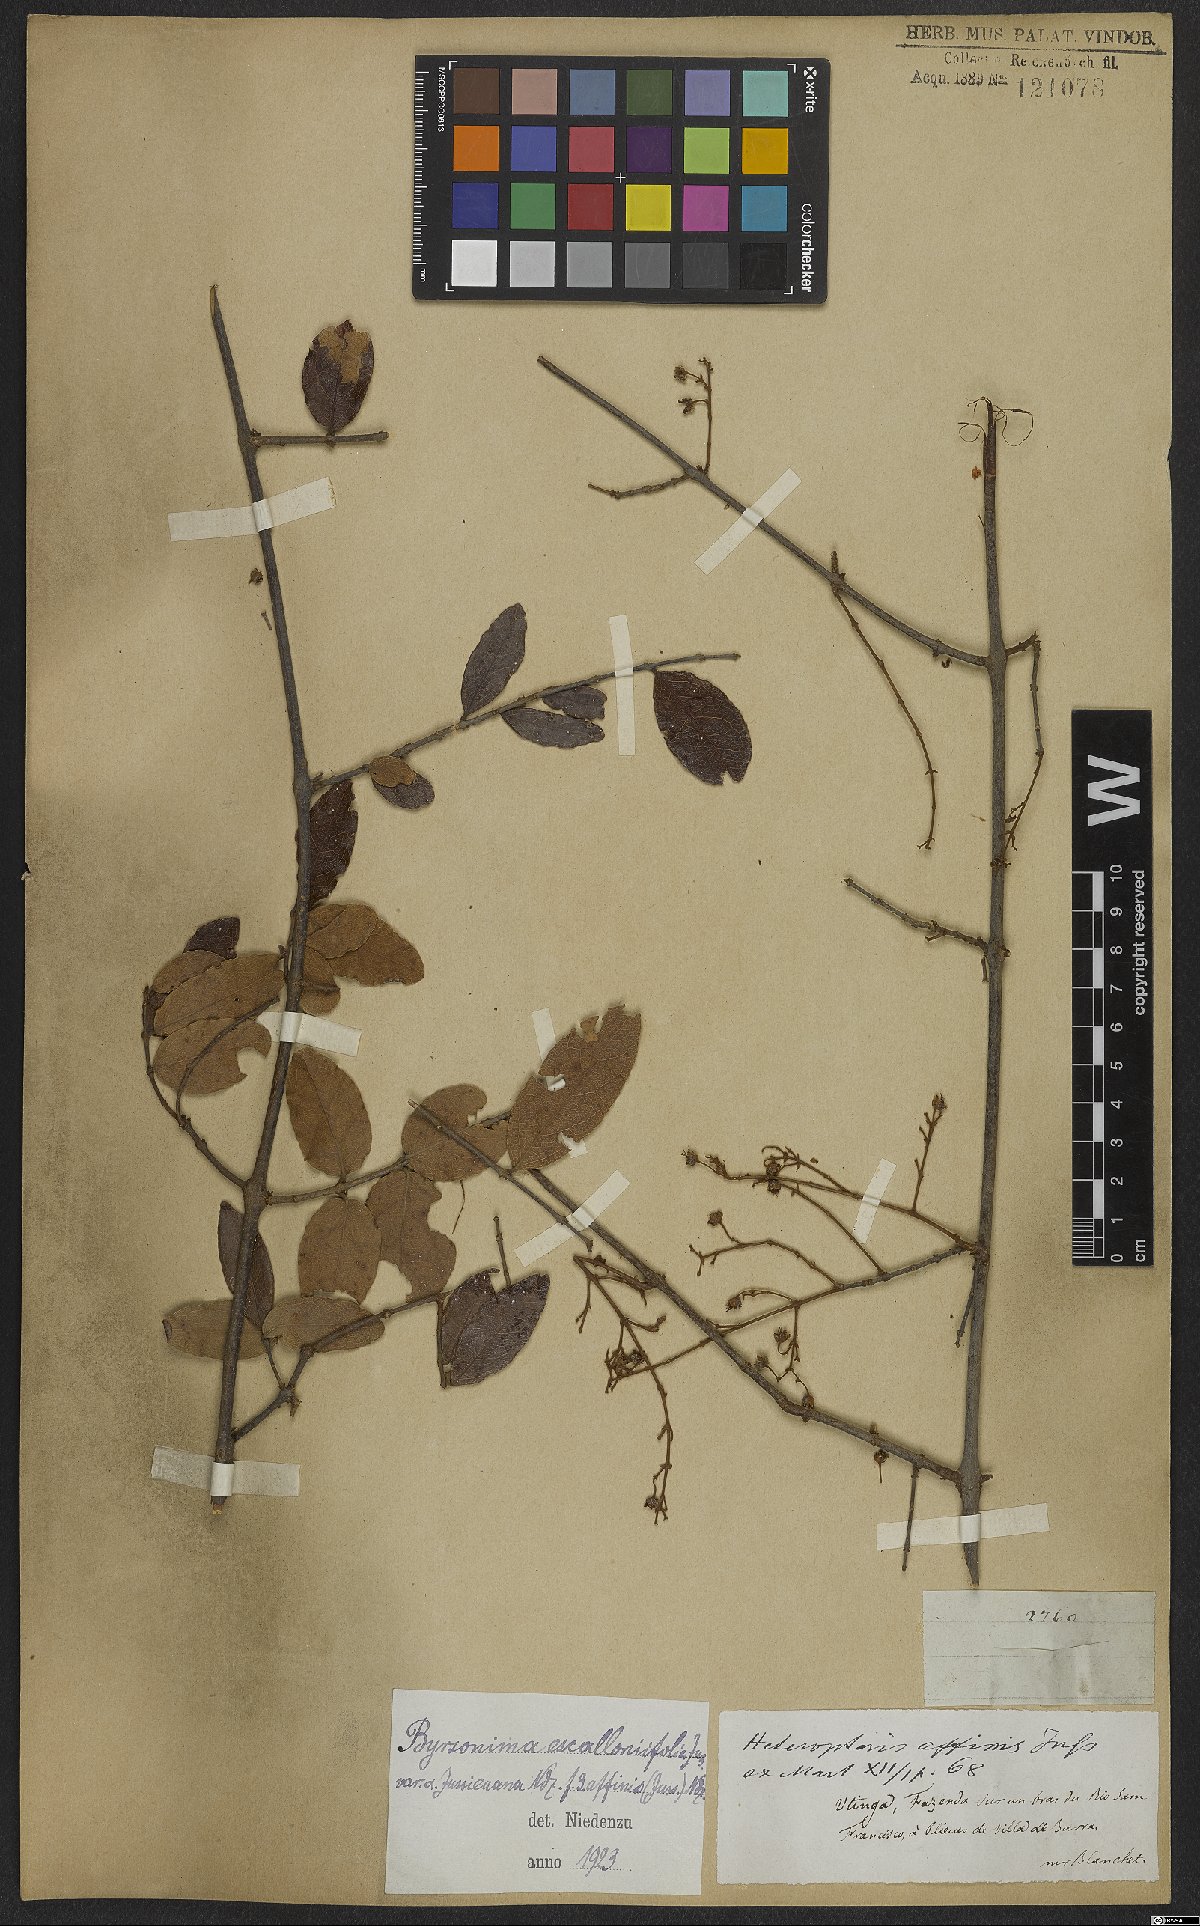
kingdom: Plantae
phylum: Tracheophyta
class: Magnoliopsida
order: Malpighiales
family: Malpighiaceae
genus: Heteropterys
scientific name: Heteropterys escalloniifolia
